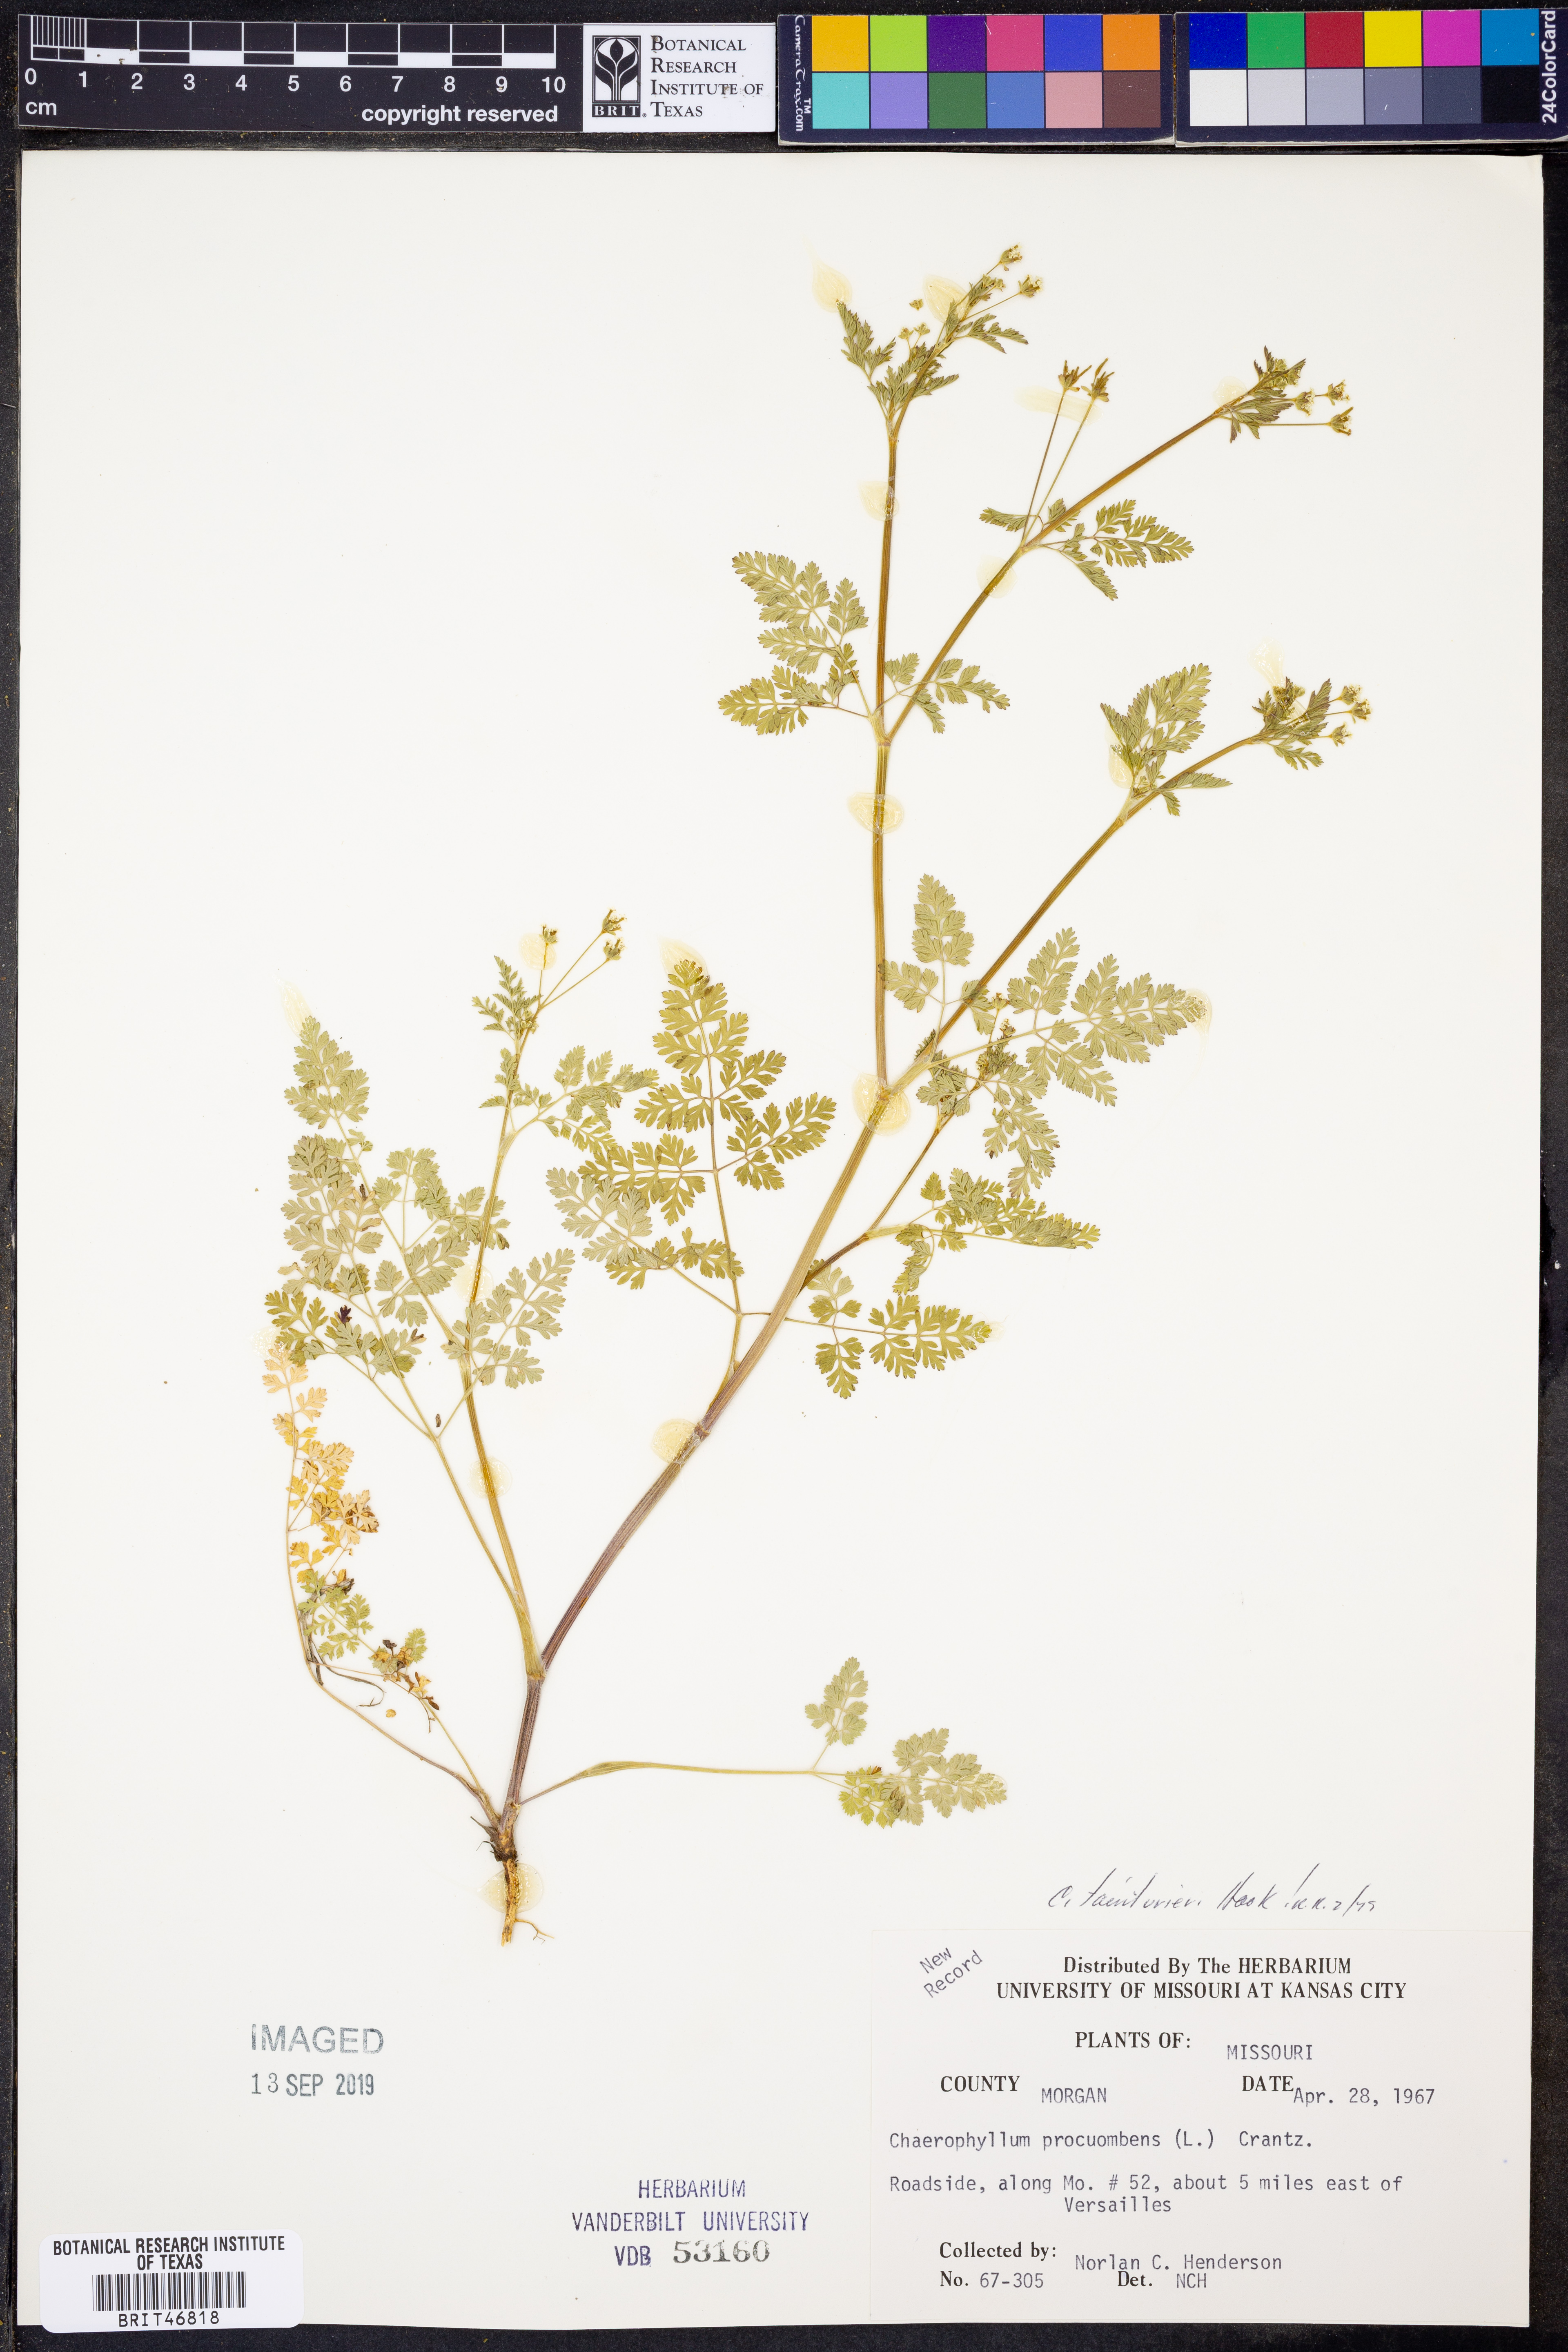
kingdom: Plantae
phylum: Tracheophyta
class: Magnoliopsida
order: Apiales
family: Apiaceae
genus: Chaerophyllum
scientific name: Chaerophyllum tainturieri
